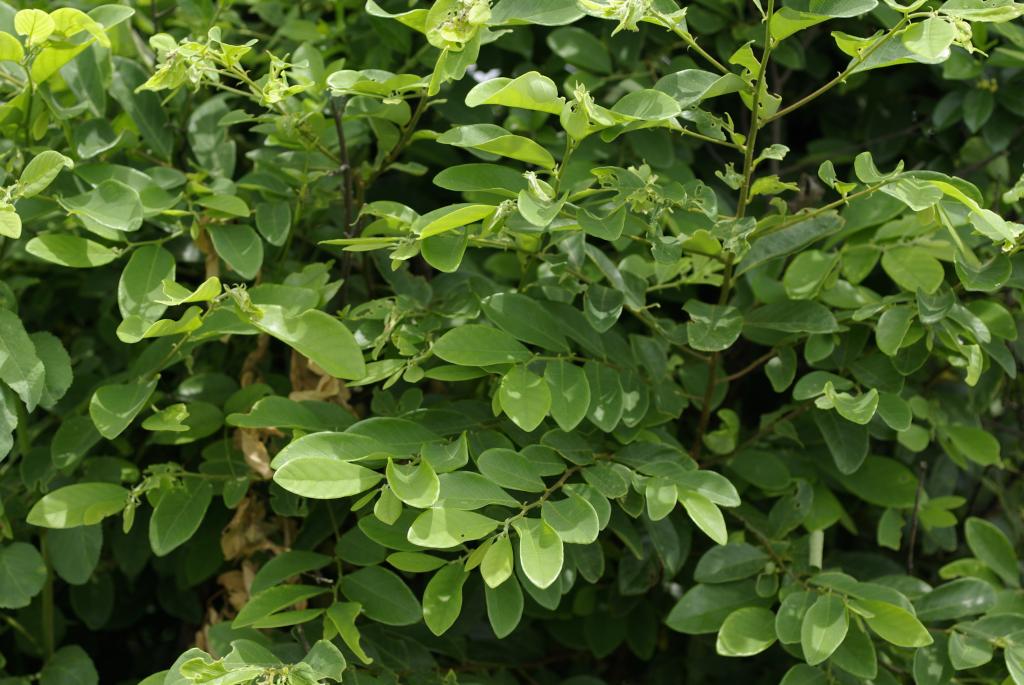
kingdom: Plantae
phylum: Tracheophyta
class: Magnoliopsida
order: Malpighiales
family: Phyllanthaceae
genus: Bridelia
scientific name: Bridelia tomentosa
